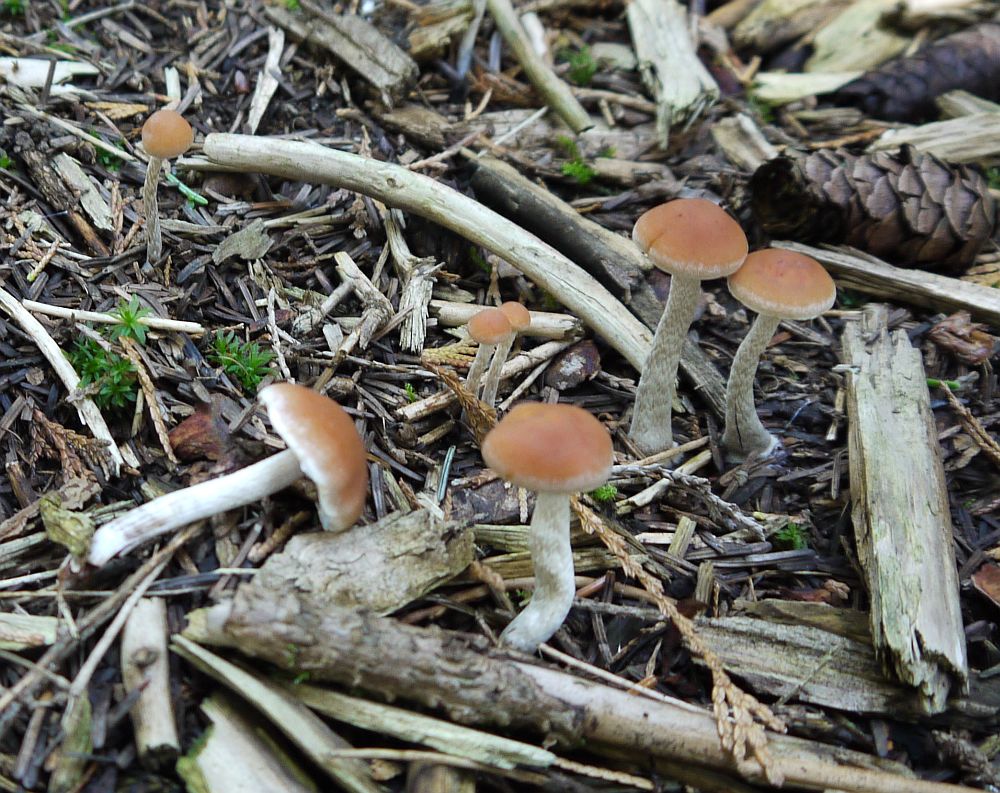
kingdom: Fungi
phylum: Basidiomycota
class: Agaricomycetes
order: Agaricales
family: Strophariaceae
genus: Hypholoma
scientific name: Hypholoma marginatum
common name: enlig svovlhat
